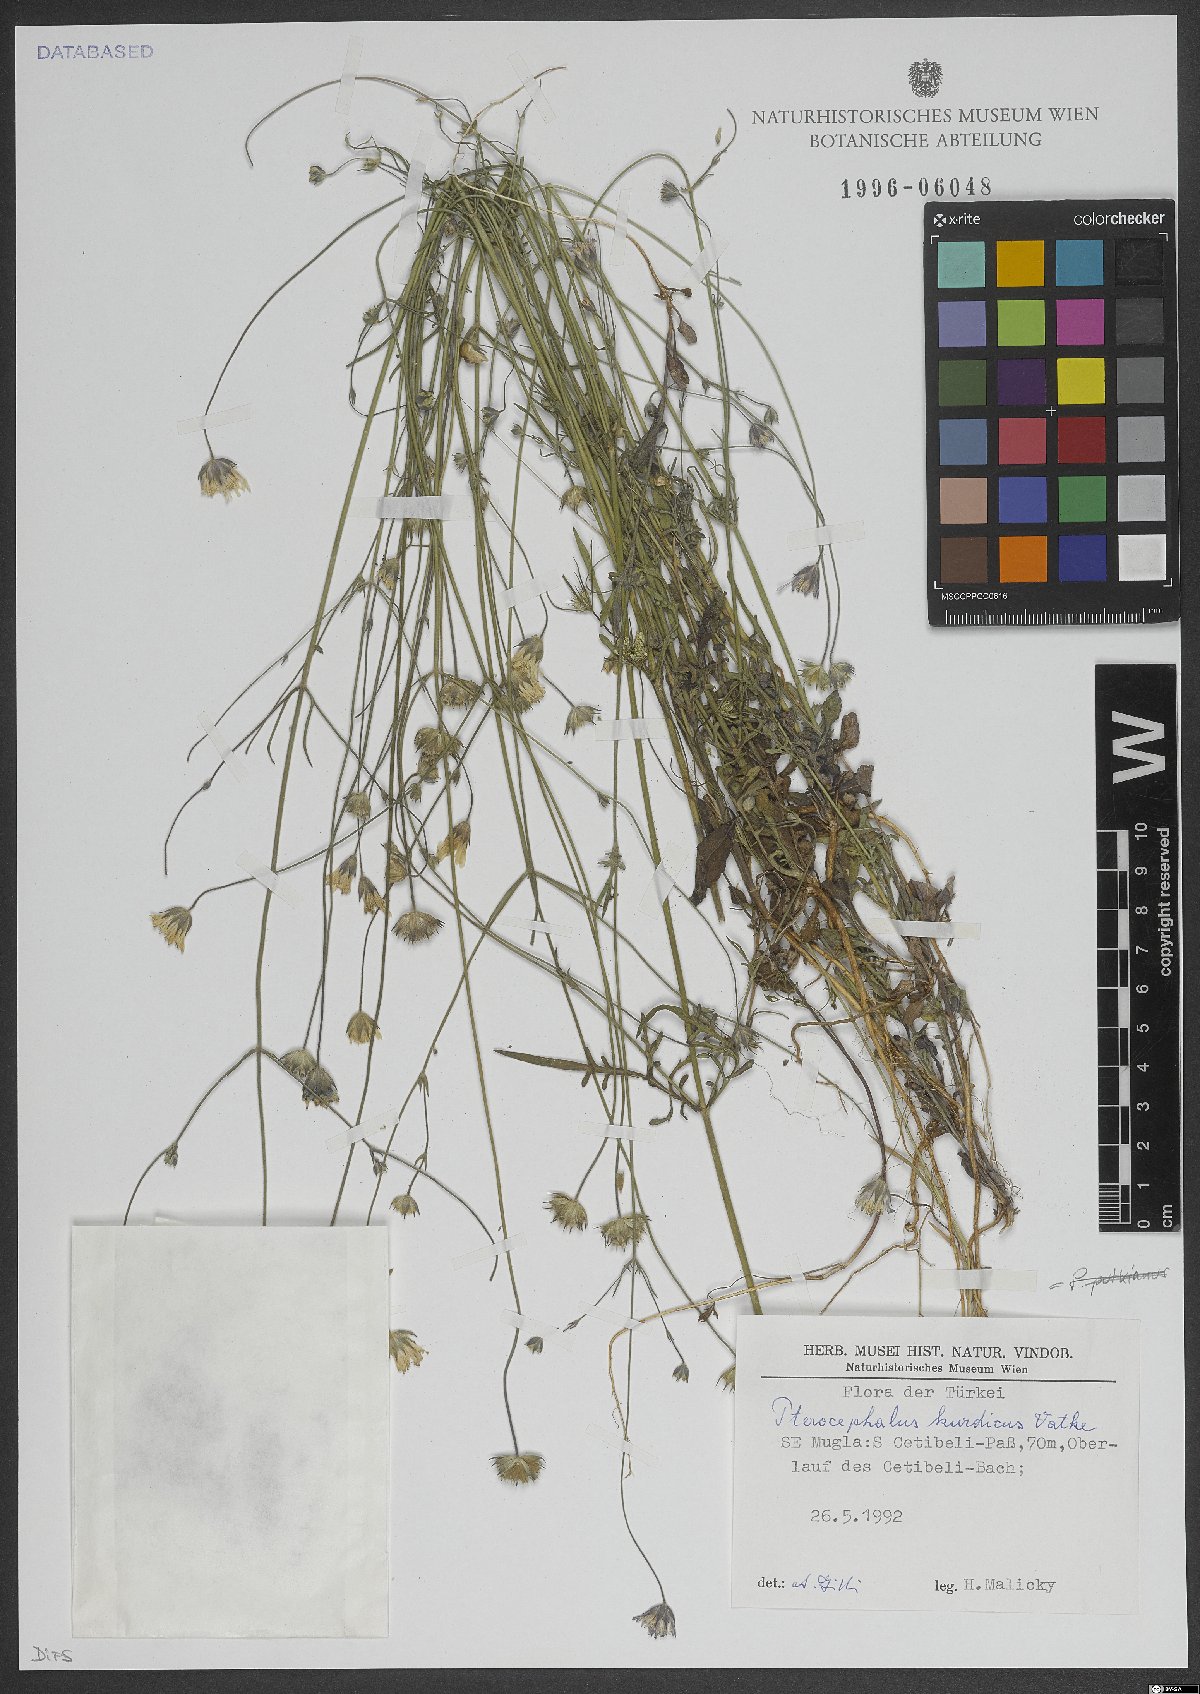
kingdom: Plantae
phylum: Tracheophyta
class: Magnoliopsida
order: Dipsacales
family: Caprifoliaceae
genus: Pterocephalus
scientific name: Pterocephalus kurdicus
